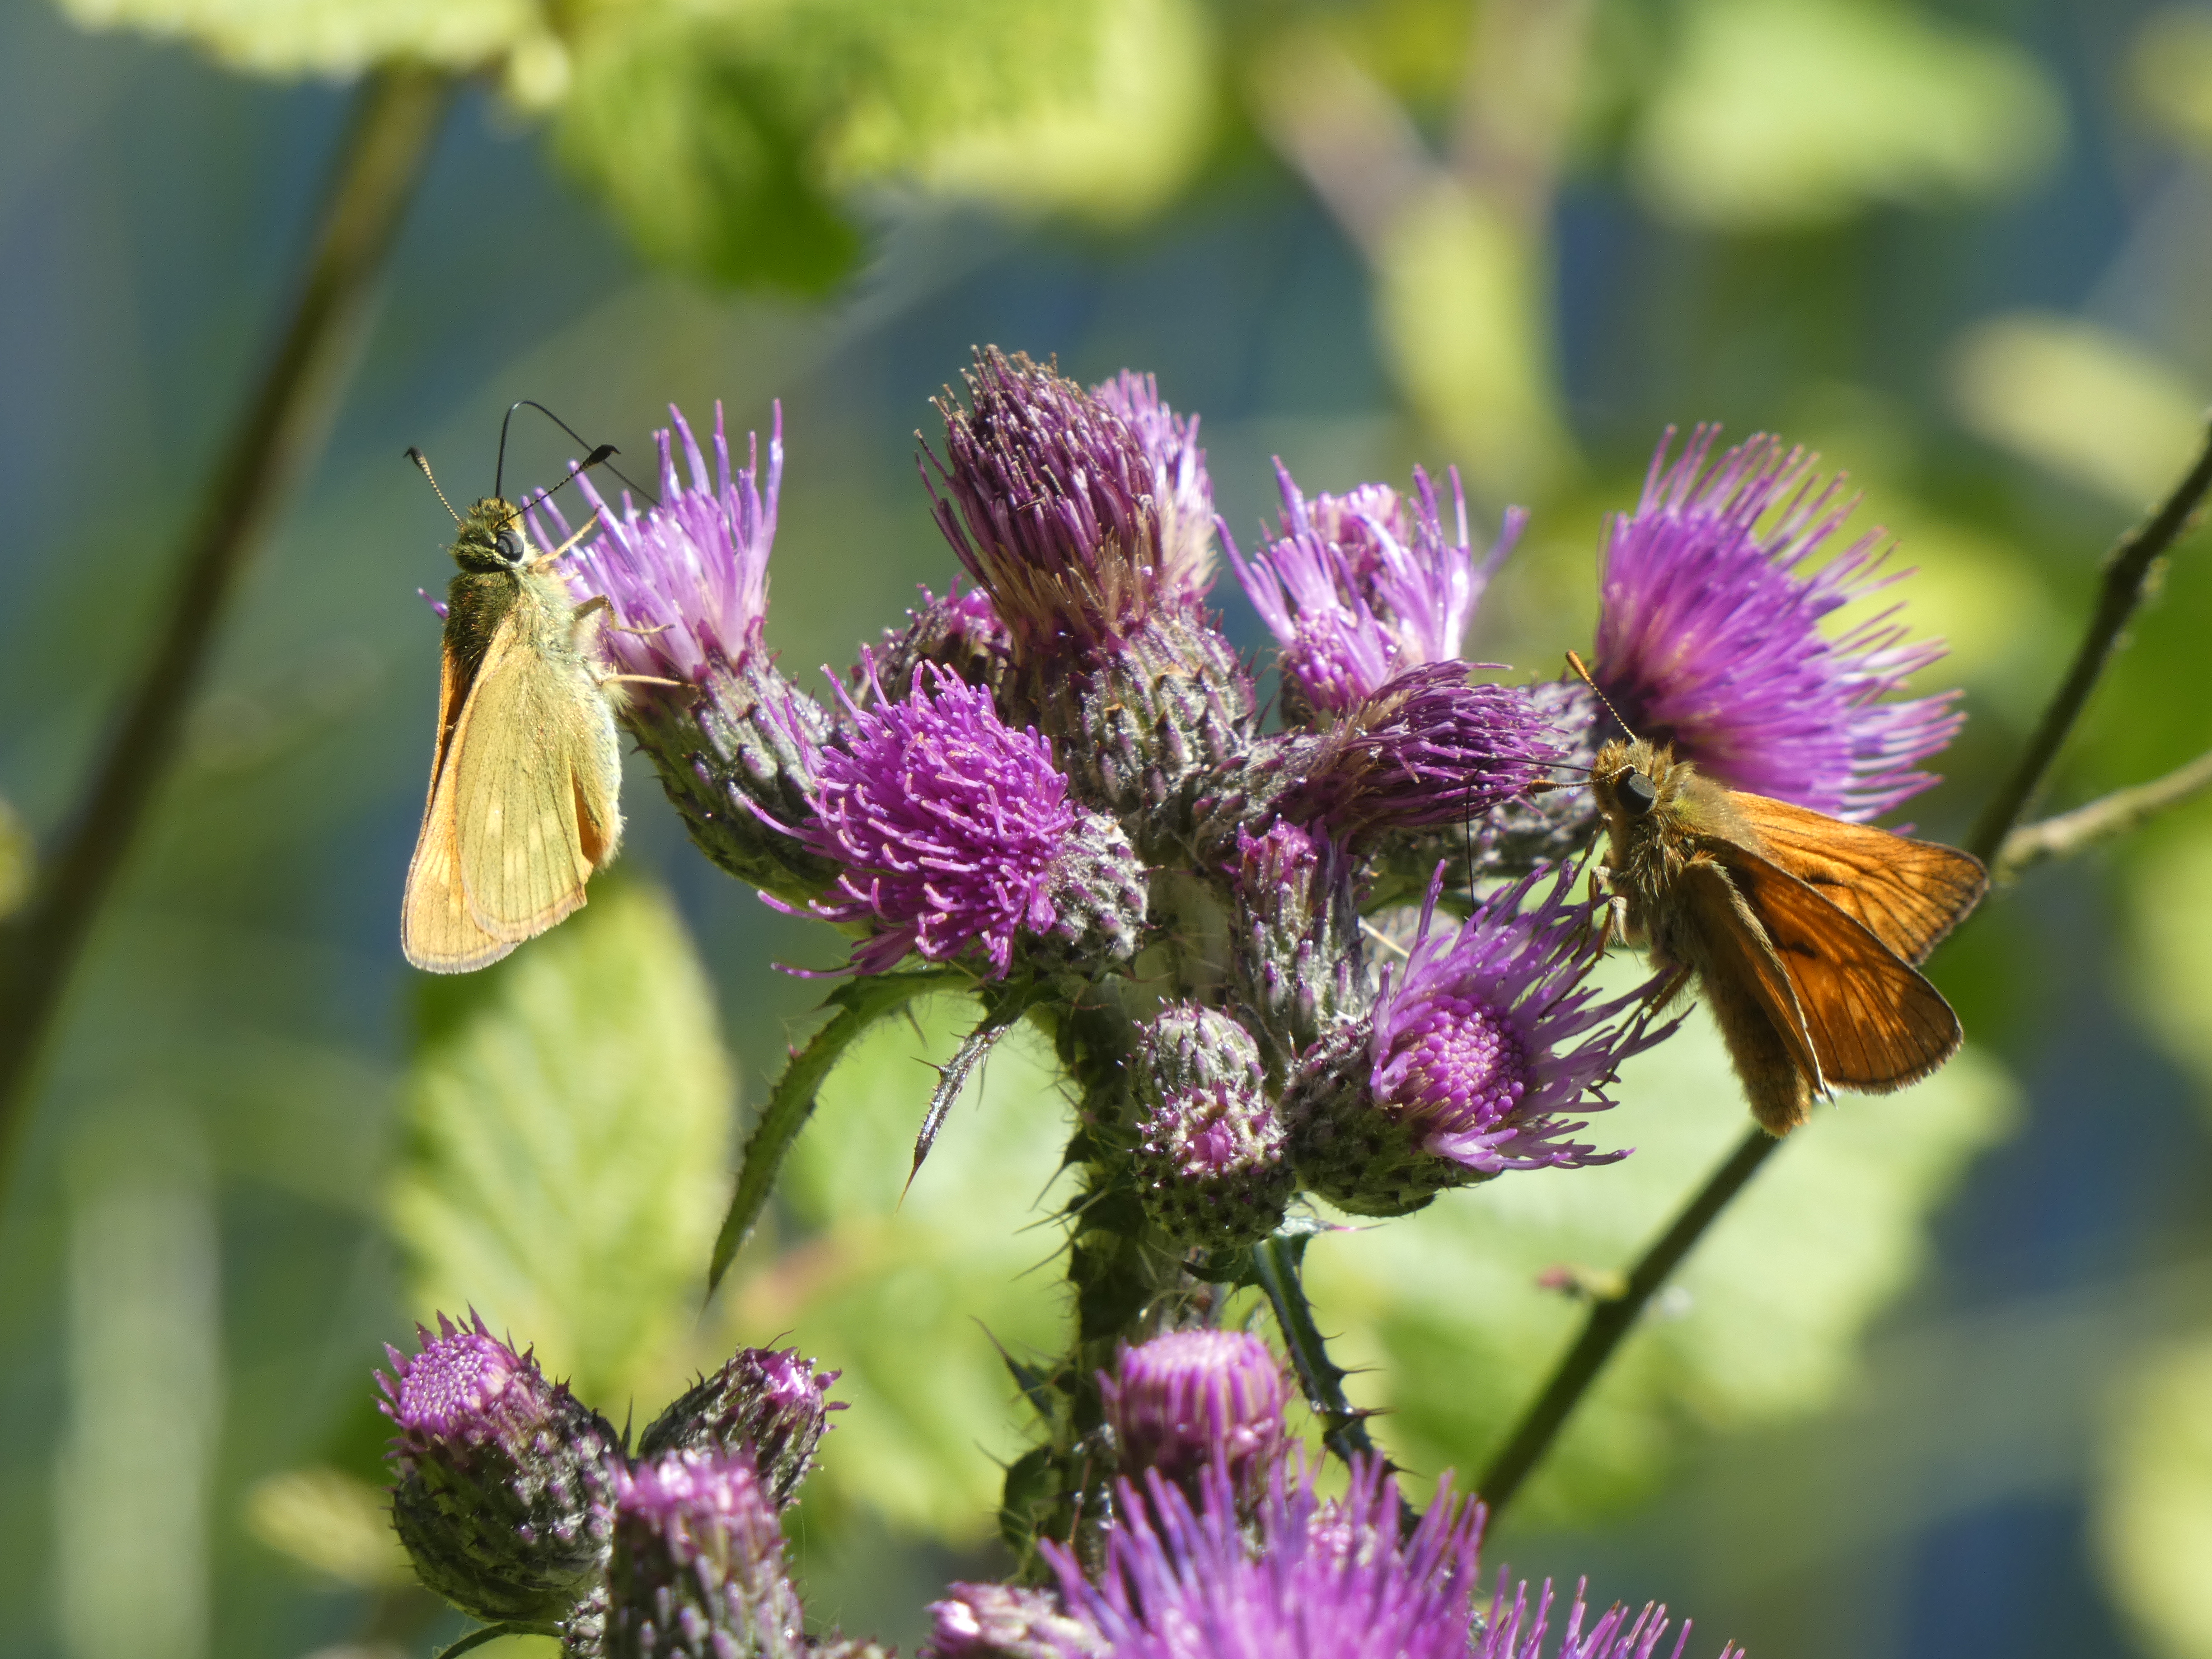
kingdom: Animalia
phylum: Arthropoda
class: Insecta
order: Lepidoptera
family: Hesperiidae
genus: Ochlodes
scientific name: Ochlodes venata
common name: Stor bredpande
